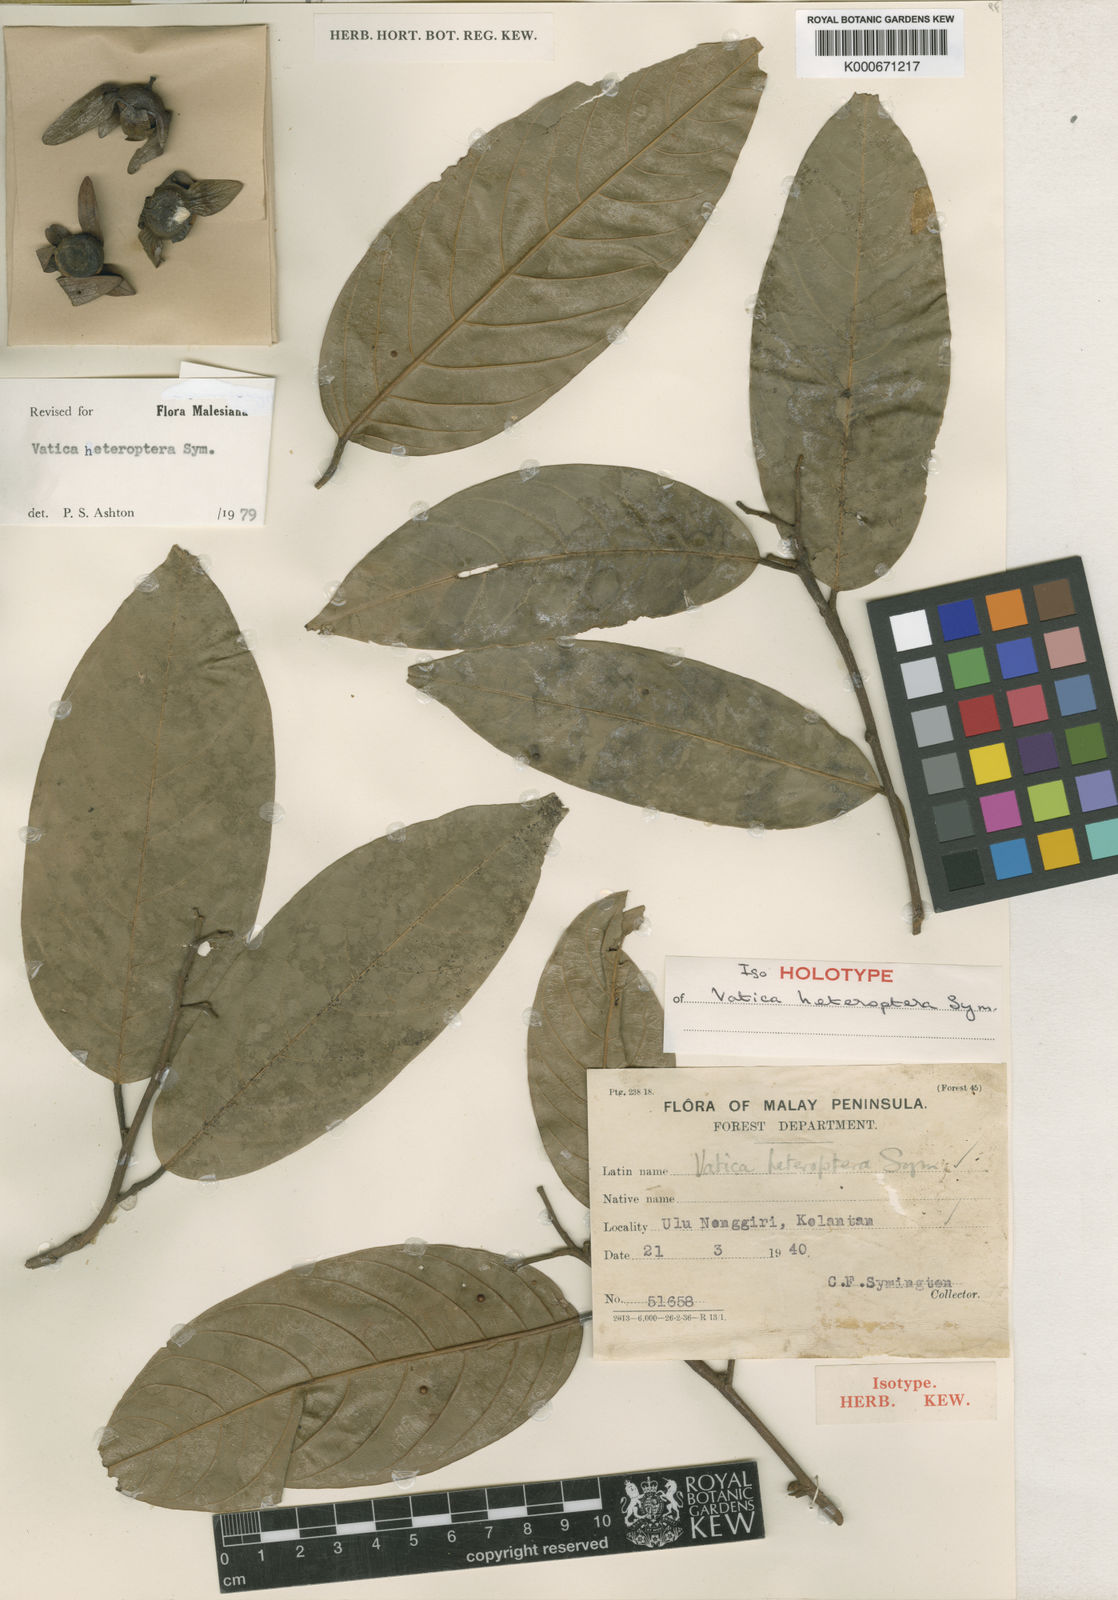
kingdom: Plantae
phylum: Tracheophyta
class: Magnoliopsida
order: Malvales
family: Dipterocarpaceae
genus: Vatica
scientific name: Vatica heteroptera
